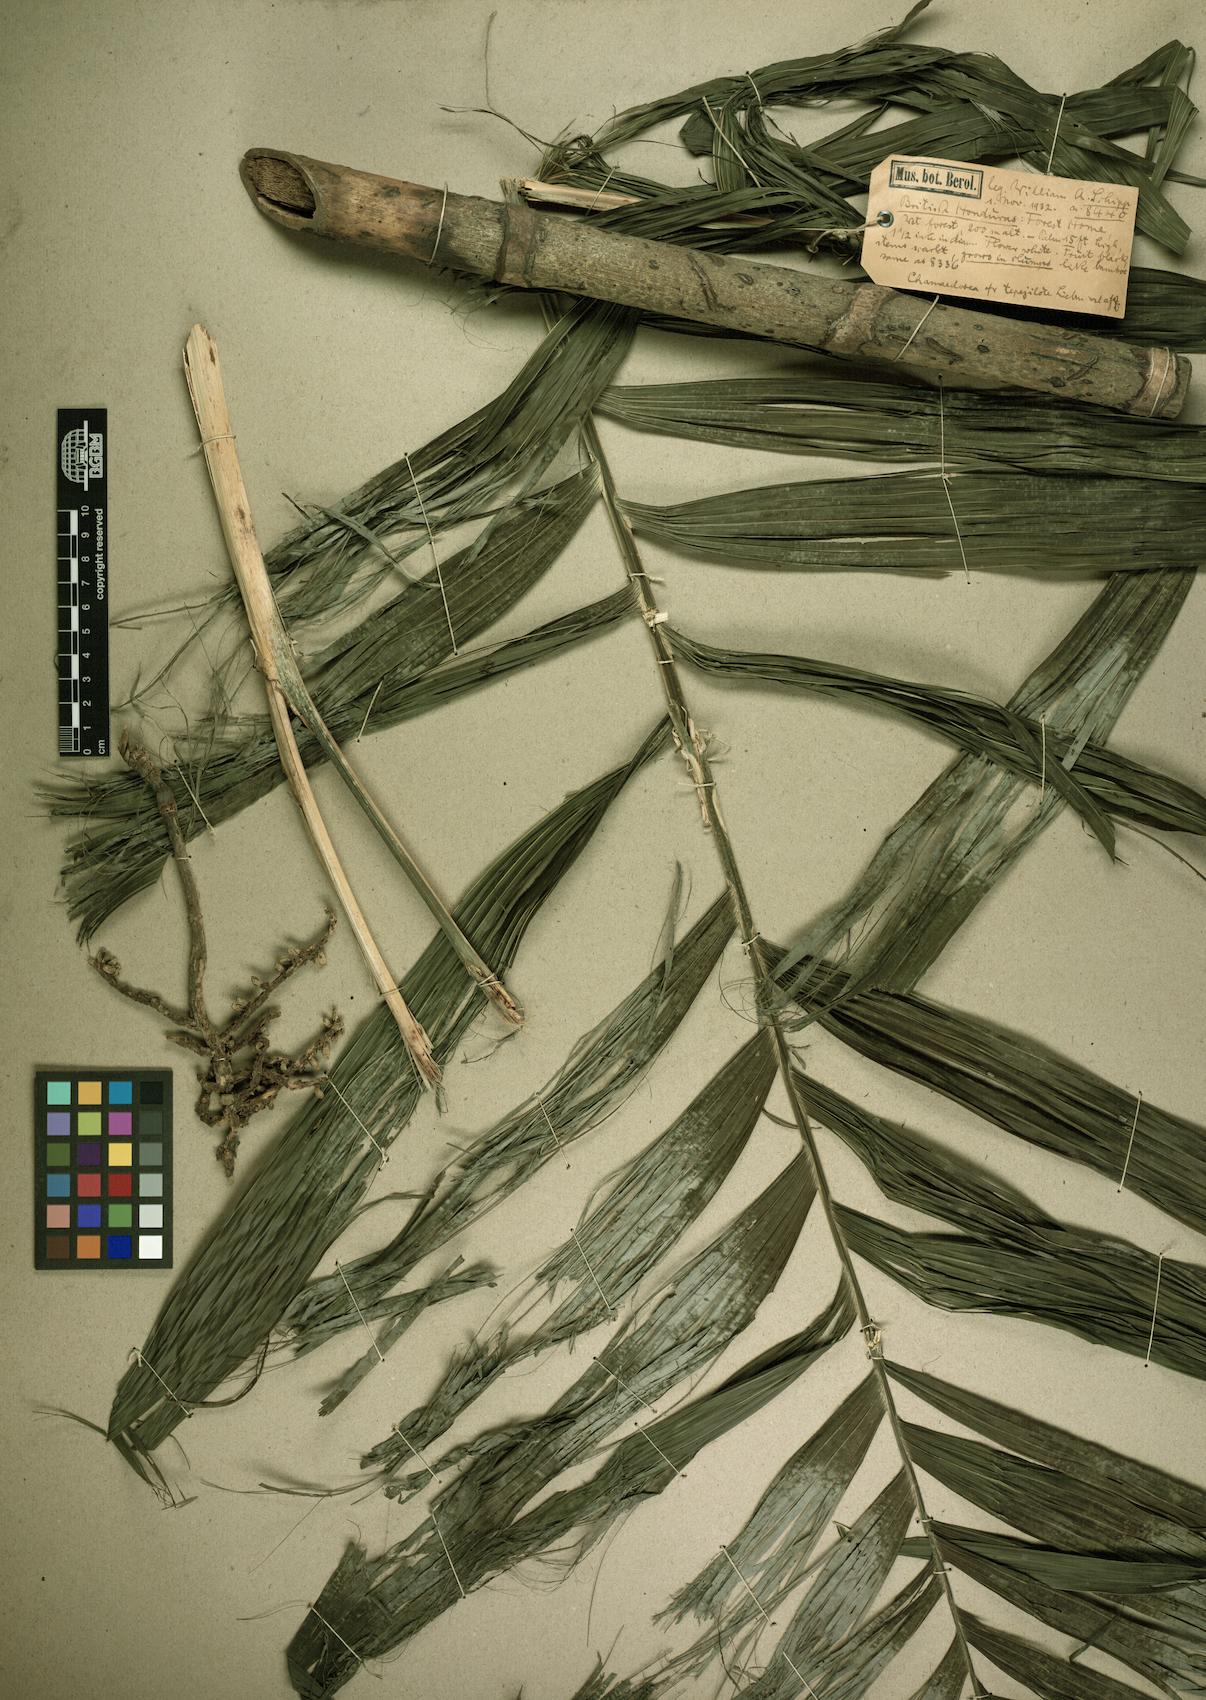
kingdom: Plantae
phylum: Tracheophyta
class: Liliopsida
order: Arecales
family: Arecaceae
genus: Chamaedorea
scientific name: Chamaedorea
